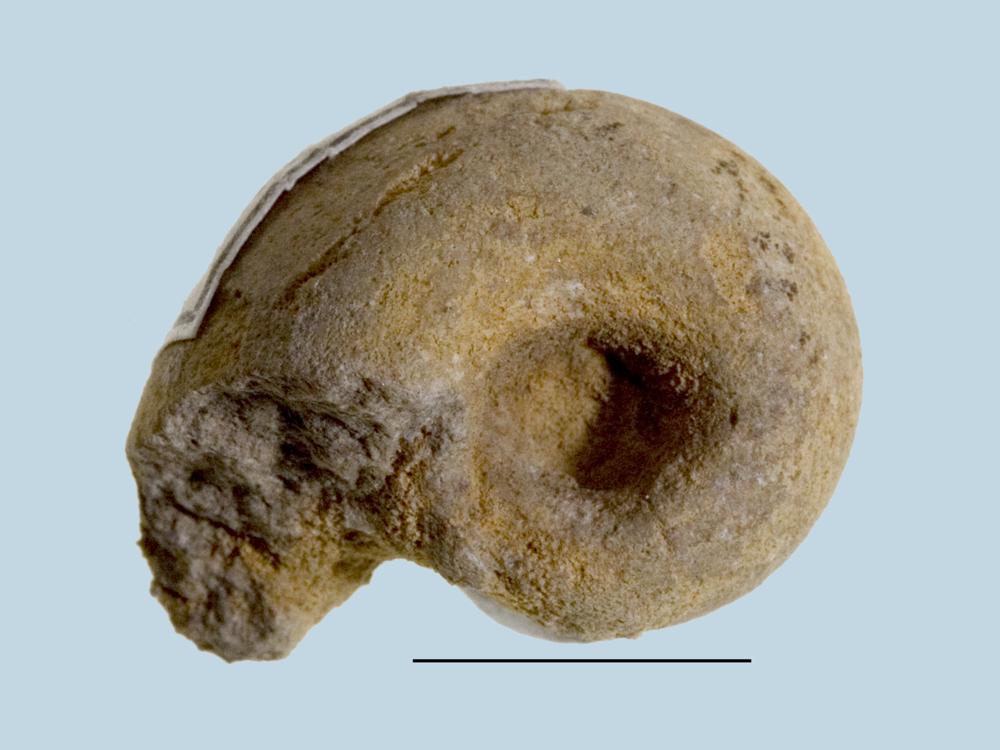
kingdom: Animalia
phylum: Mollusca
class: Gastropoda
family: Bucaniidae
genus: Bucania
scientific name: Bucania Bellerophon czekanowskii
